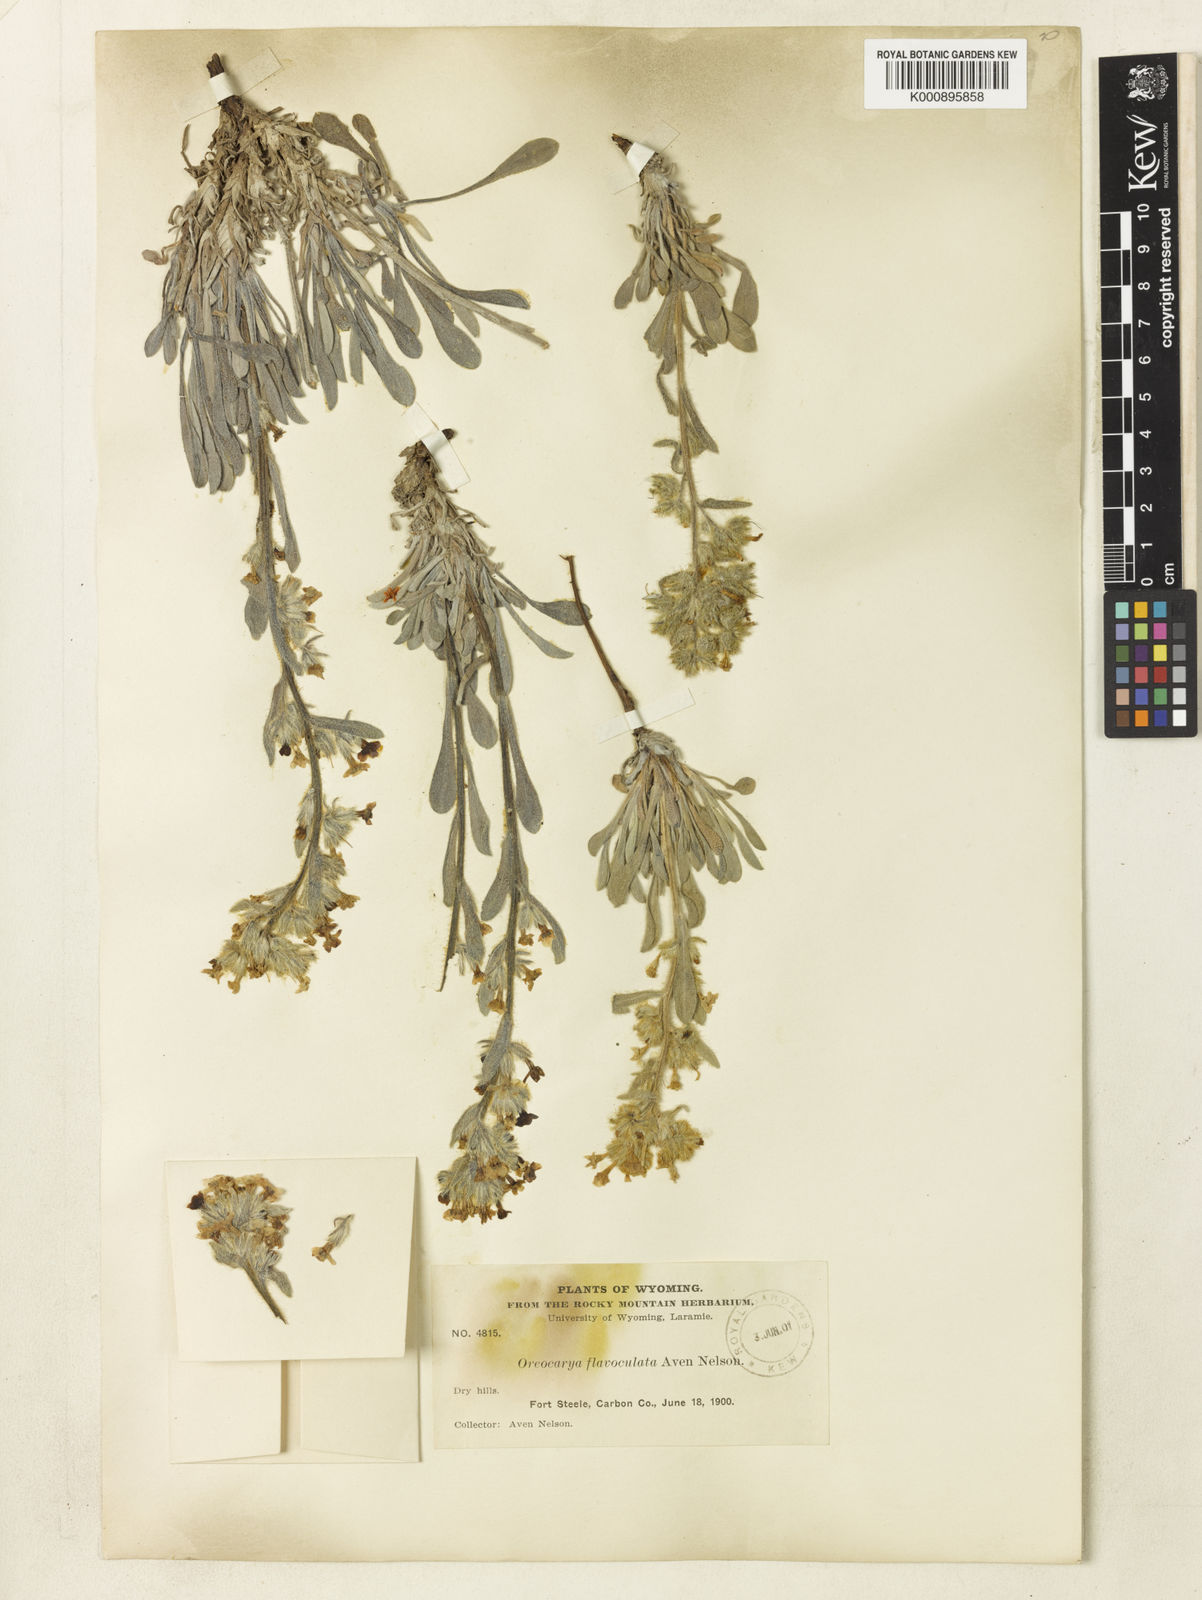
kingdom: Plantae
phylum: Tracheophyta
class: Magnoliopsida
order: Boraginales
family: Boraginaceae
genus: Oreocarya
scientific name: Oreocarya flavoculata
